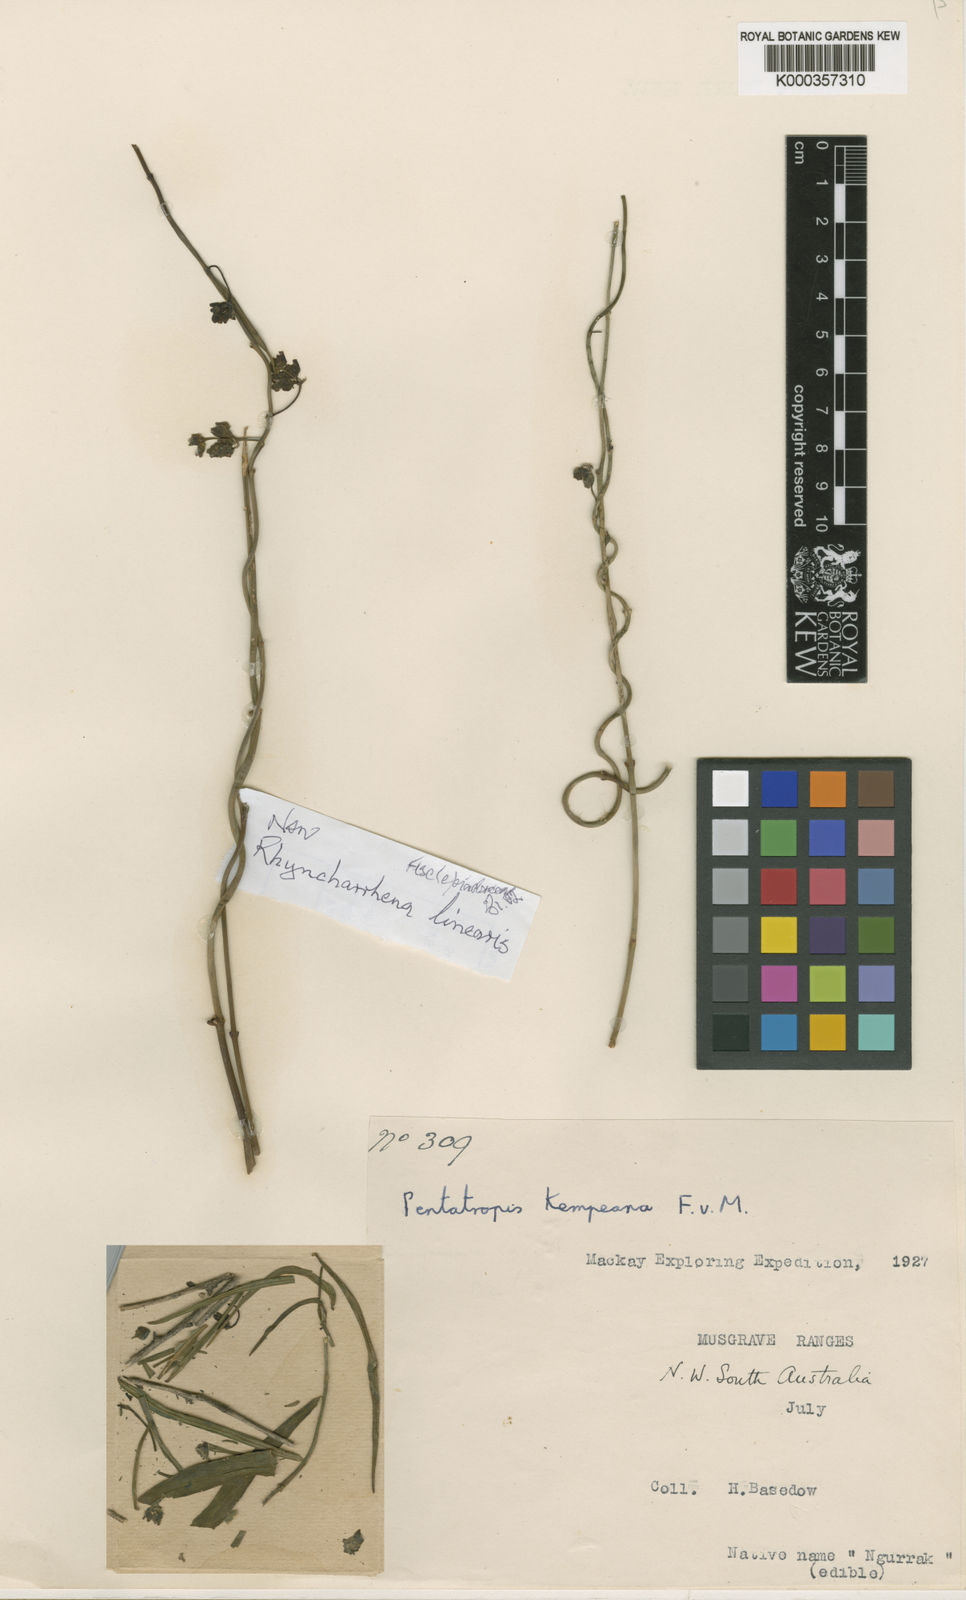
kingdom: Plantae
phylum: Tracheophyta
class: Magnoliopsida
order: Gentianales
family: Apocynaceae
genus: Vincetoxicum
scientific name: Vincetoxicum lineare
